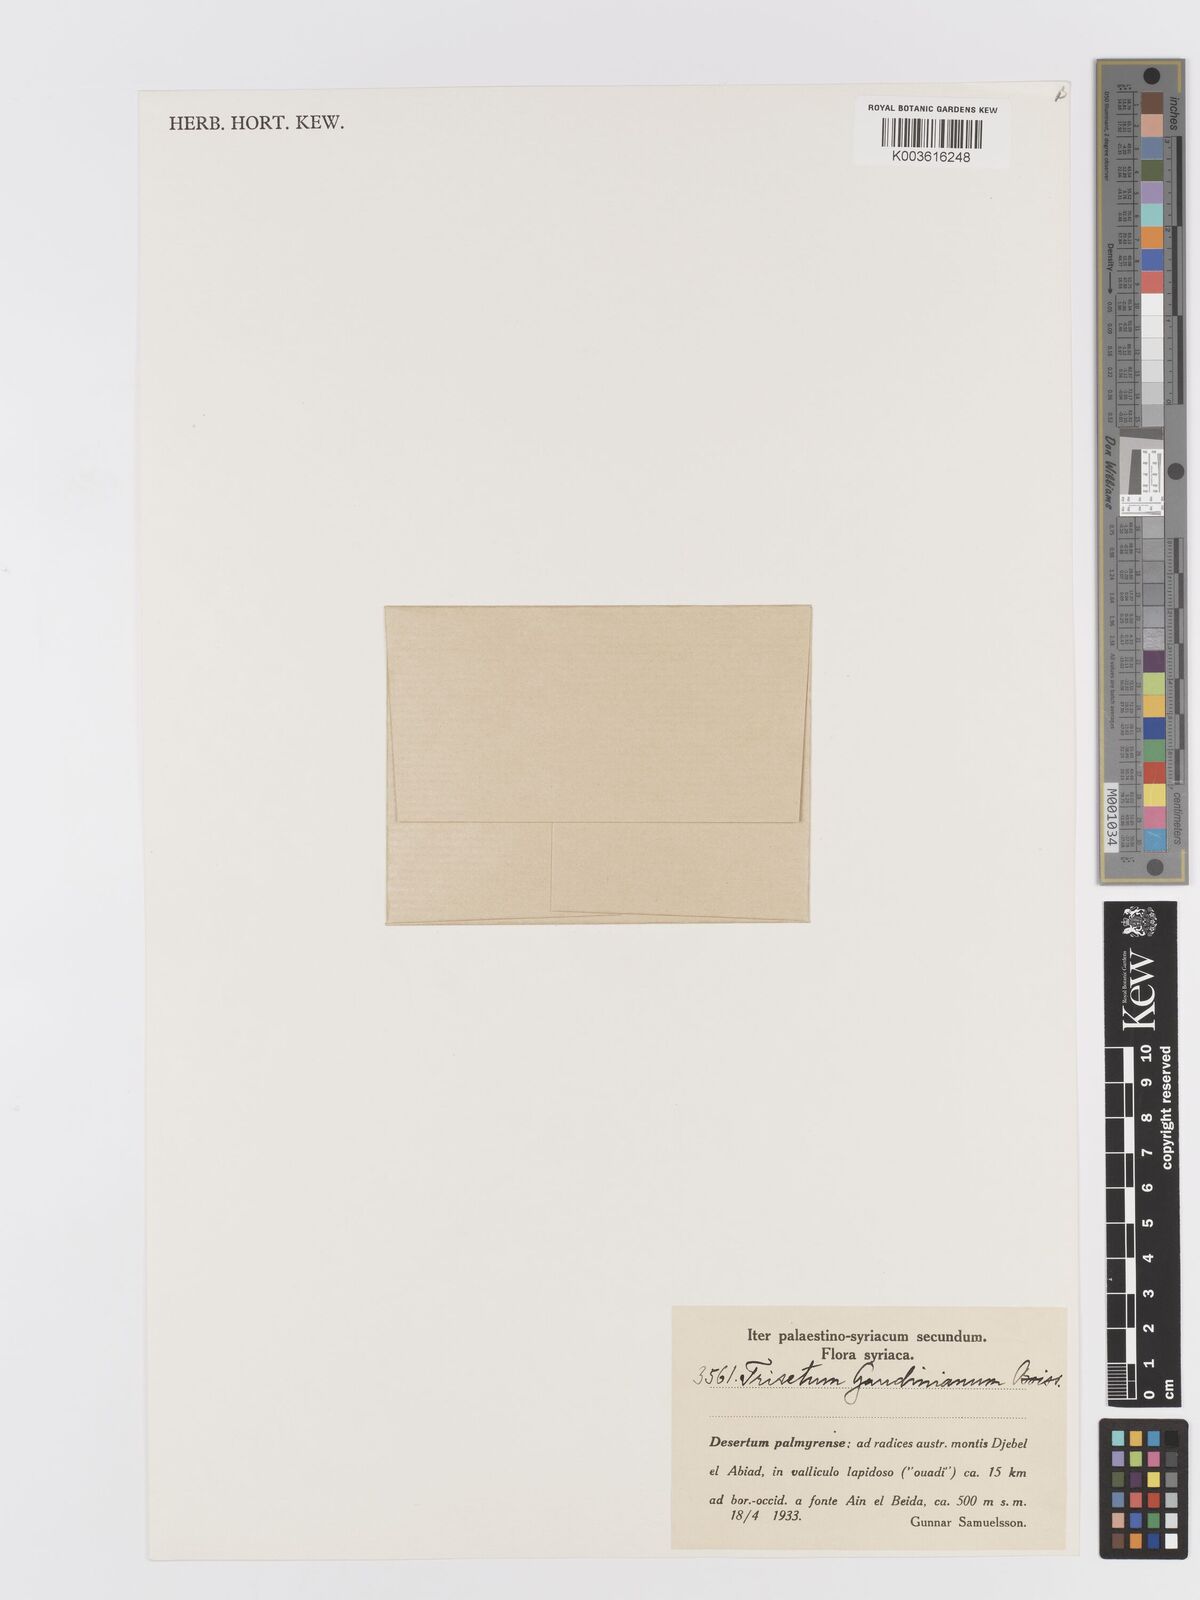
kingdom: Plantae
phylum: Tracheophyta
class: Liliopsida
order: Poales
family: Poaceae
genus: Trisetaria
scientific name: Trisetaria loeflingiana
